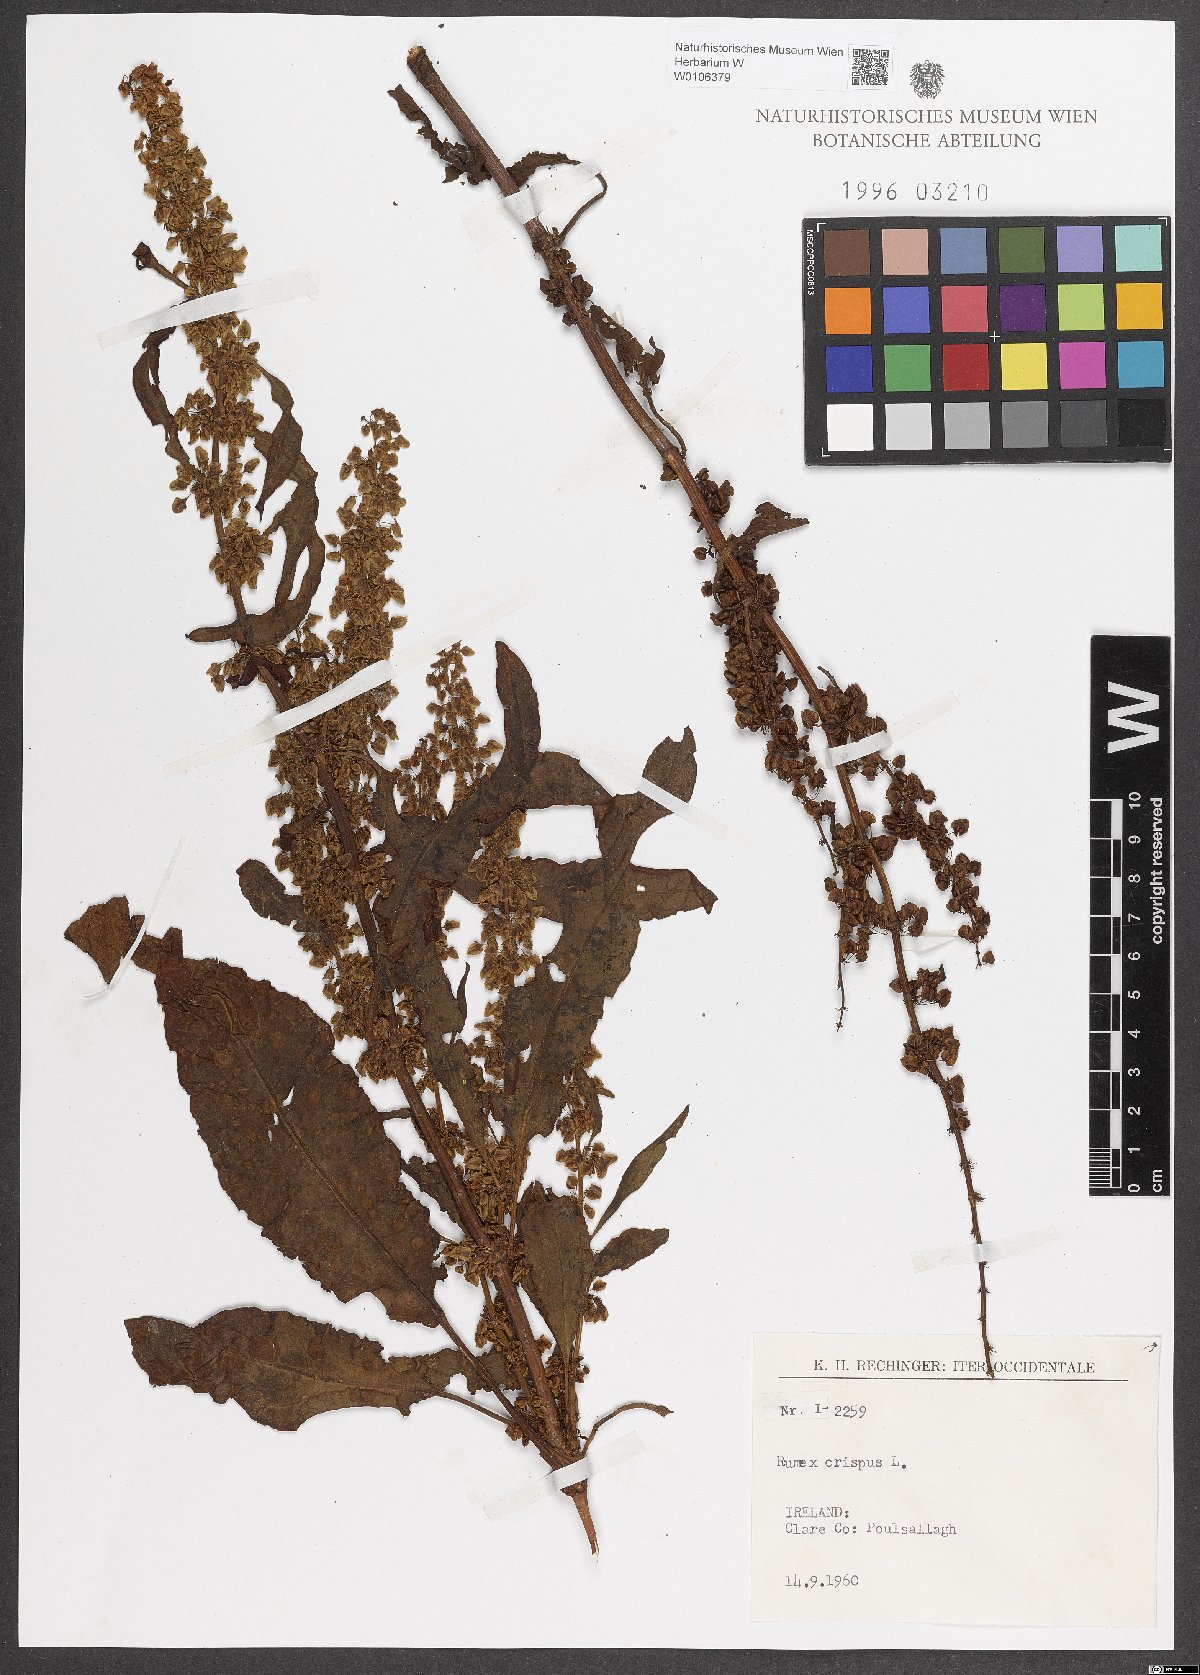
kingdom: Plantae
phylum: Tracheophyta
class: Magnoliopsida
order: Caryophyllales
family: Polygonaceae
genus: Rumex
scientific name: Rumex crispus
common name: Curled dock
